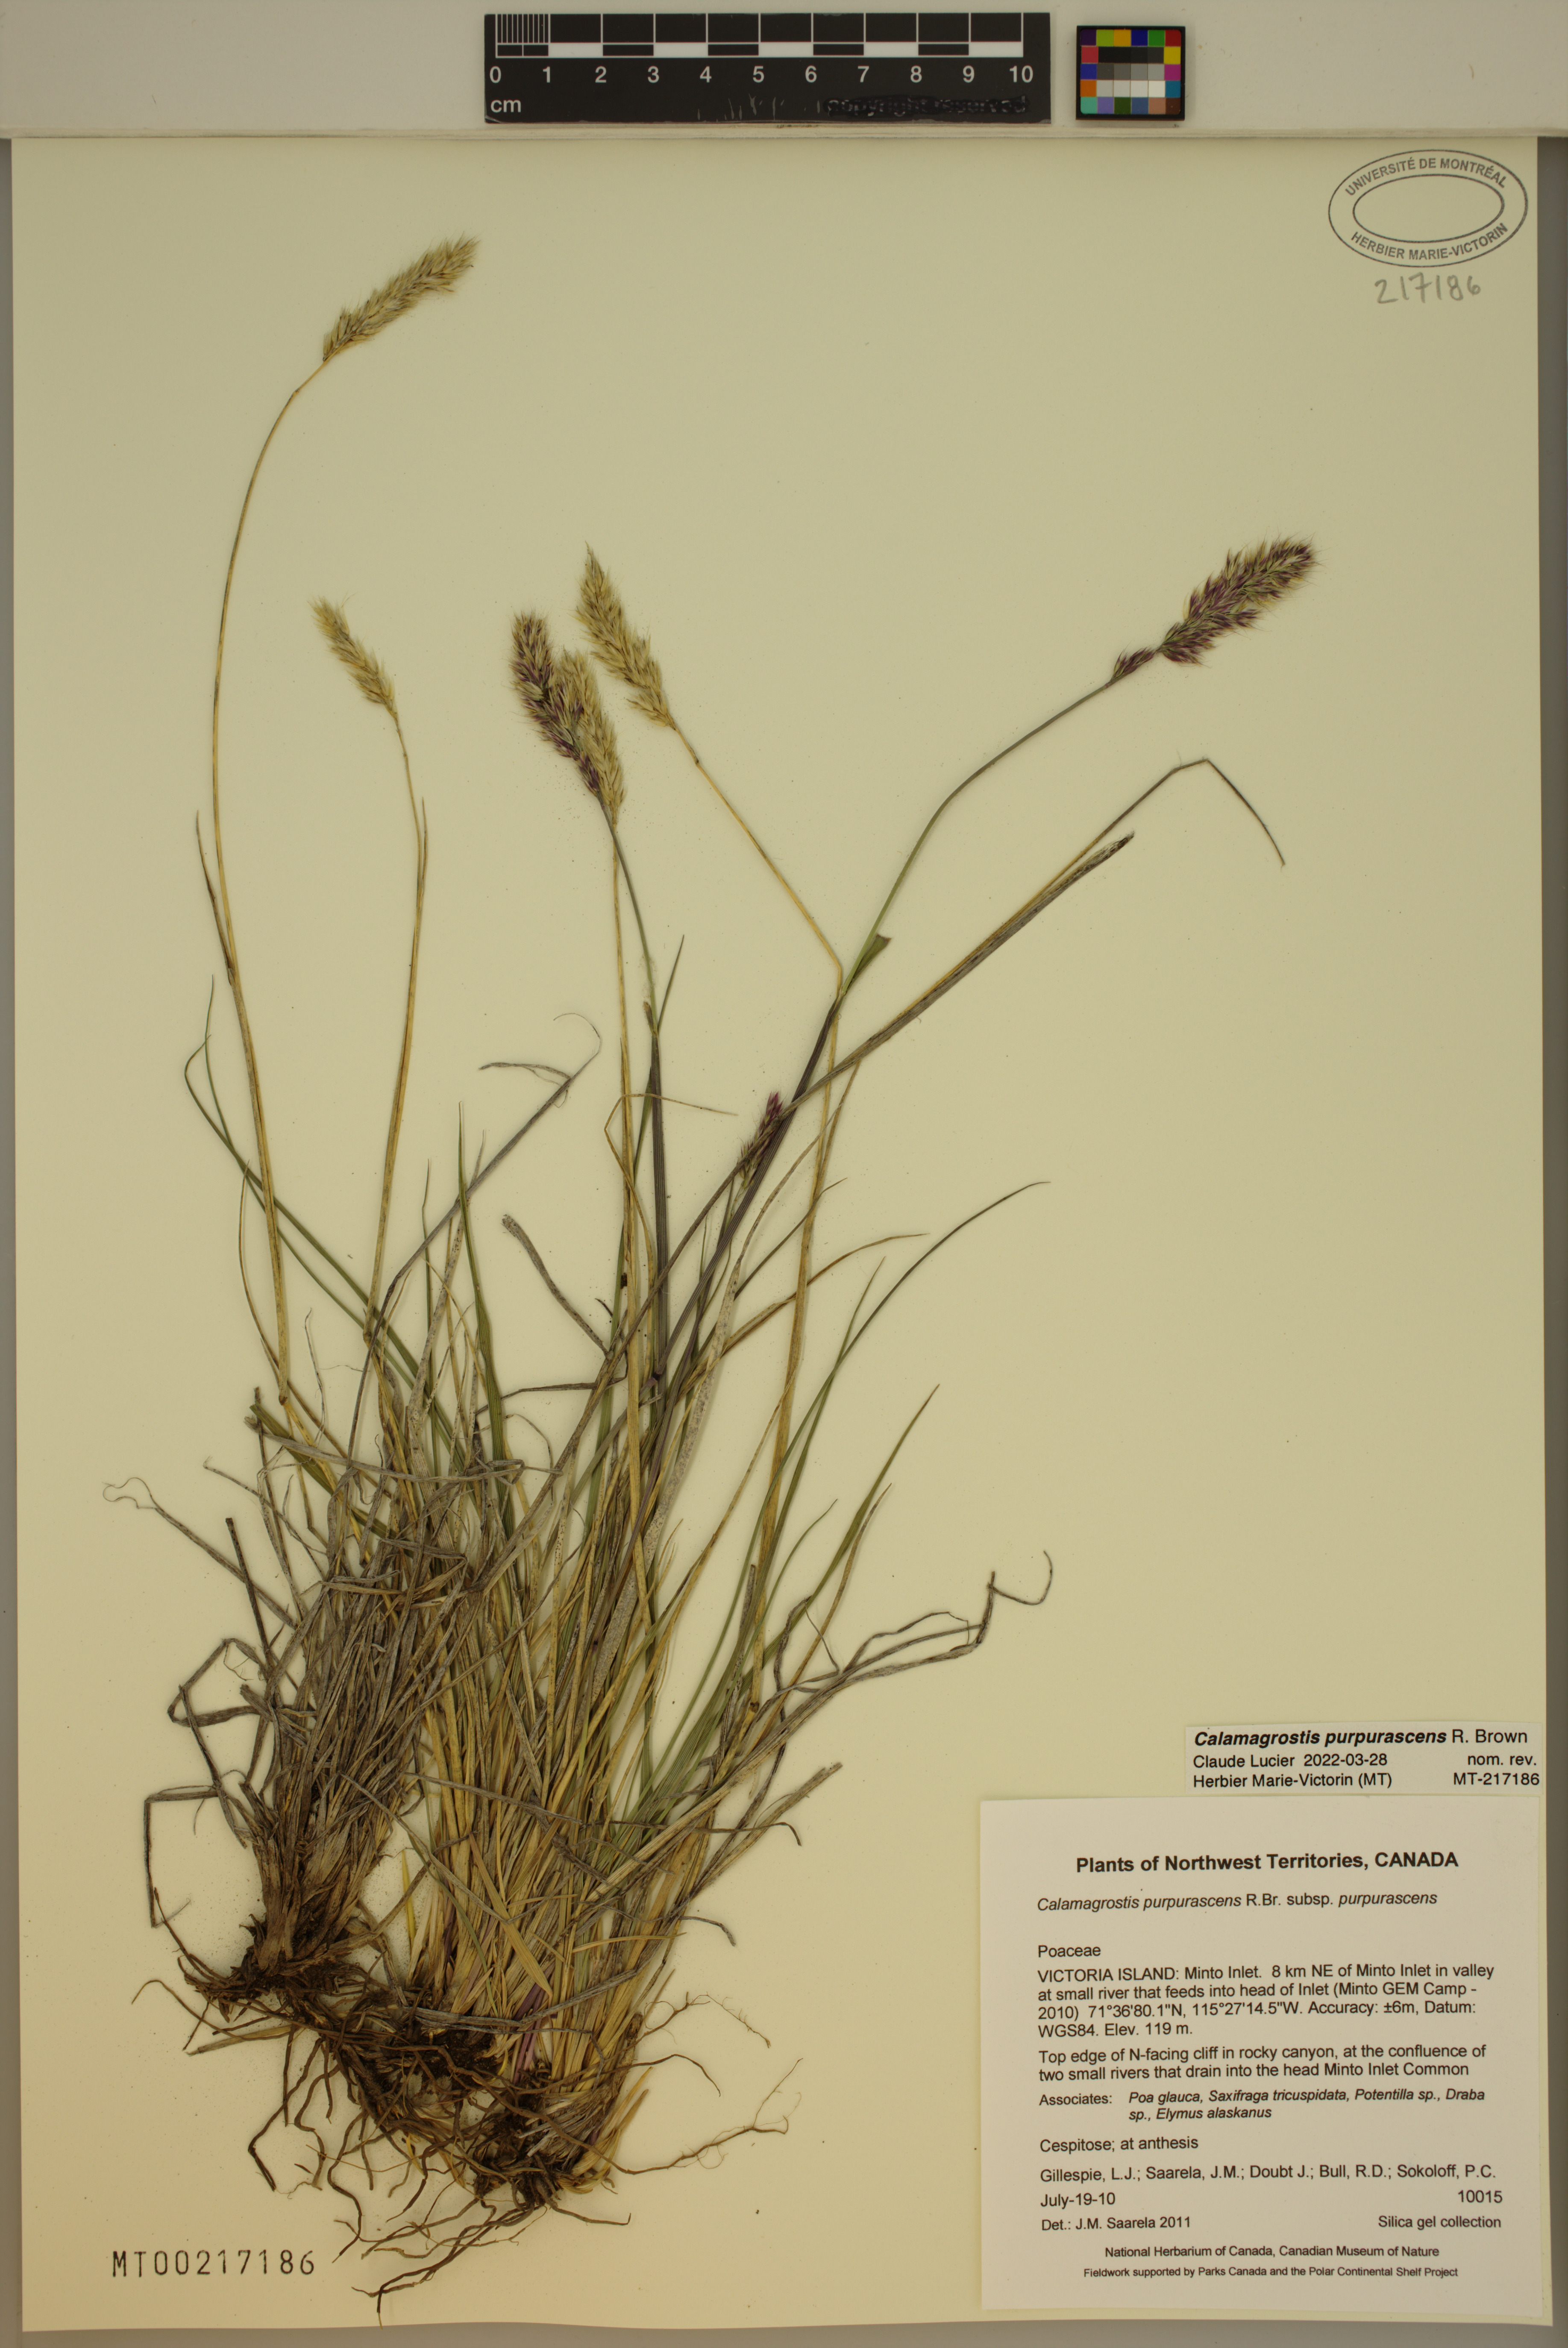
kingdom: Plantae
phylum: Tracheophyta
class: Liliopsida
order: Poales
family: Poaceae
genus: Calamagrostis
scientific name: Calamagrostis purpurascens
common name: Purple reedgrass
